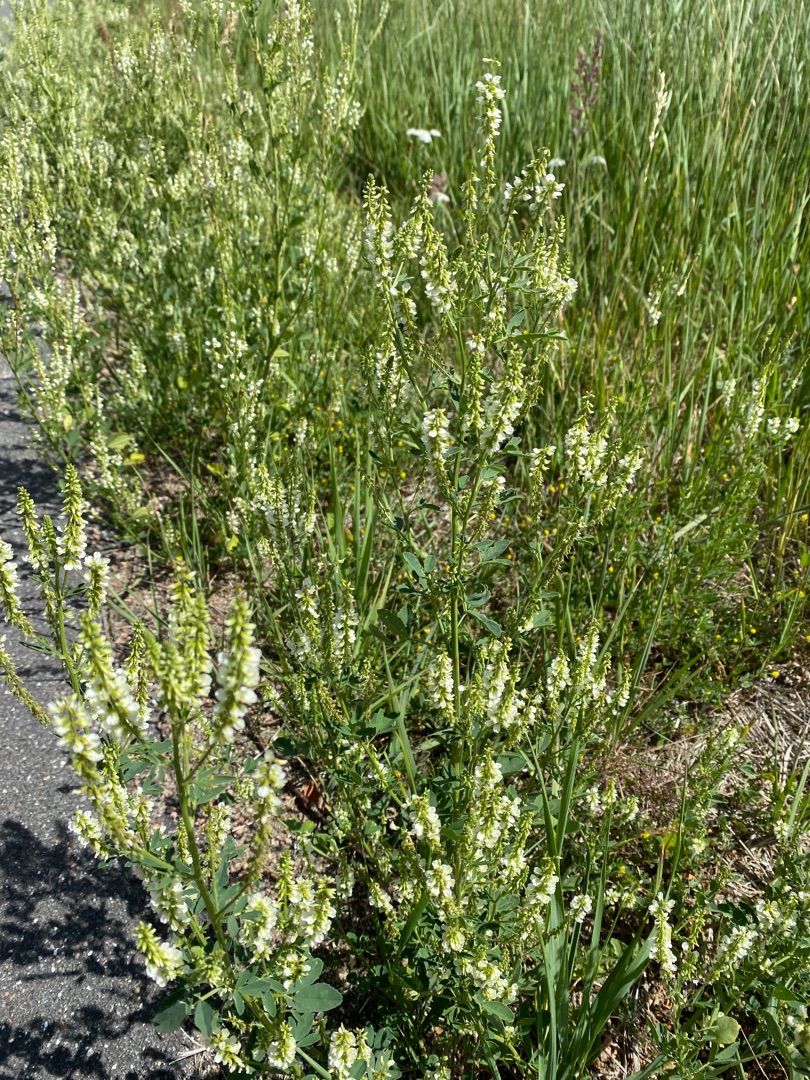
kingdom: Plantae
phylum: Tracheophyta
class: Magnoliopsida
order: Fabales
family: Fabaceae
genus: Melilotus
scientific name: Melilotus albus
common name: Hvid stenkløver
